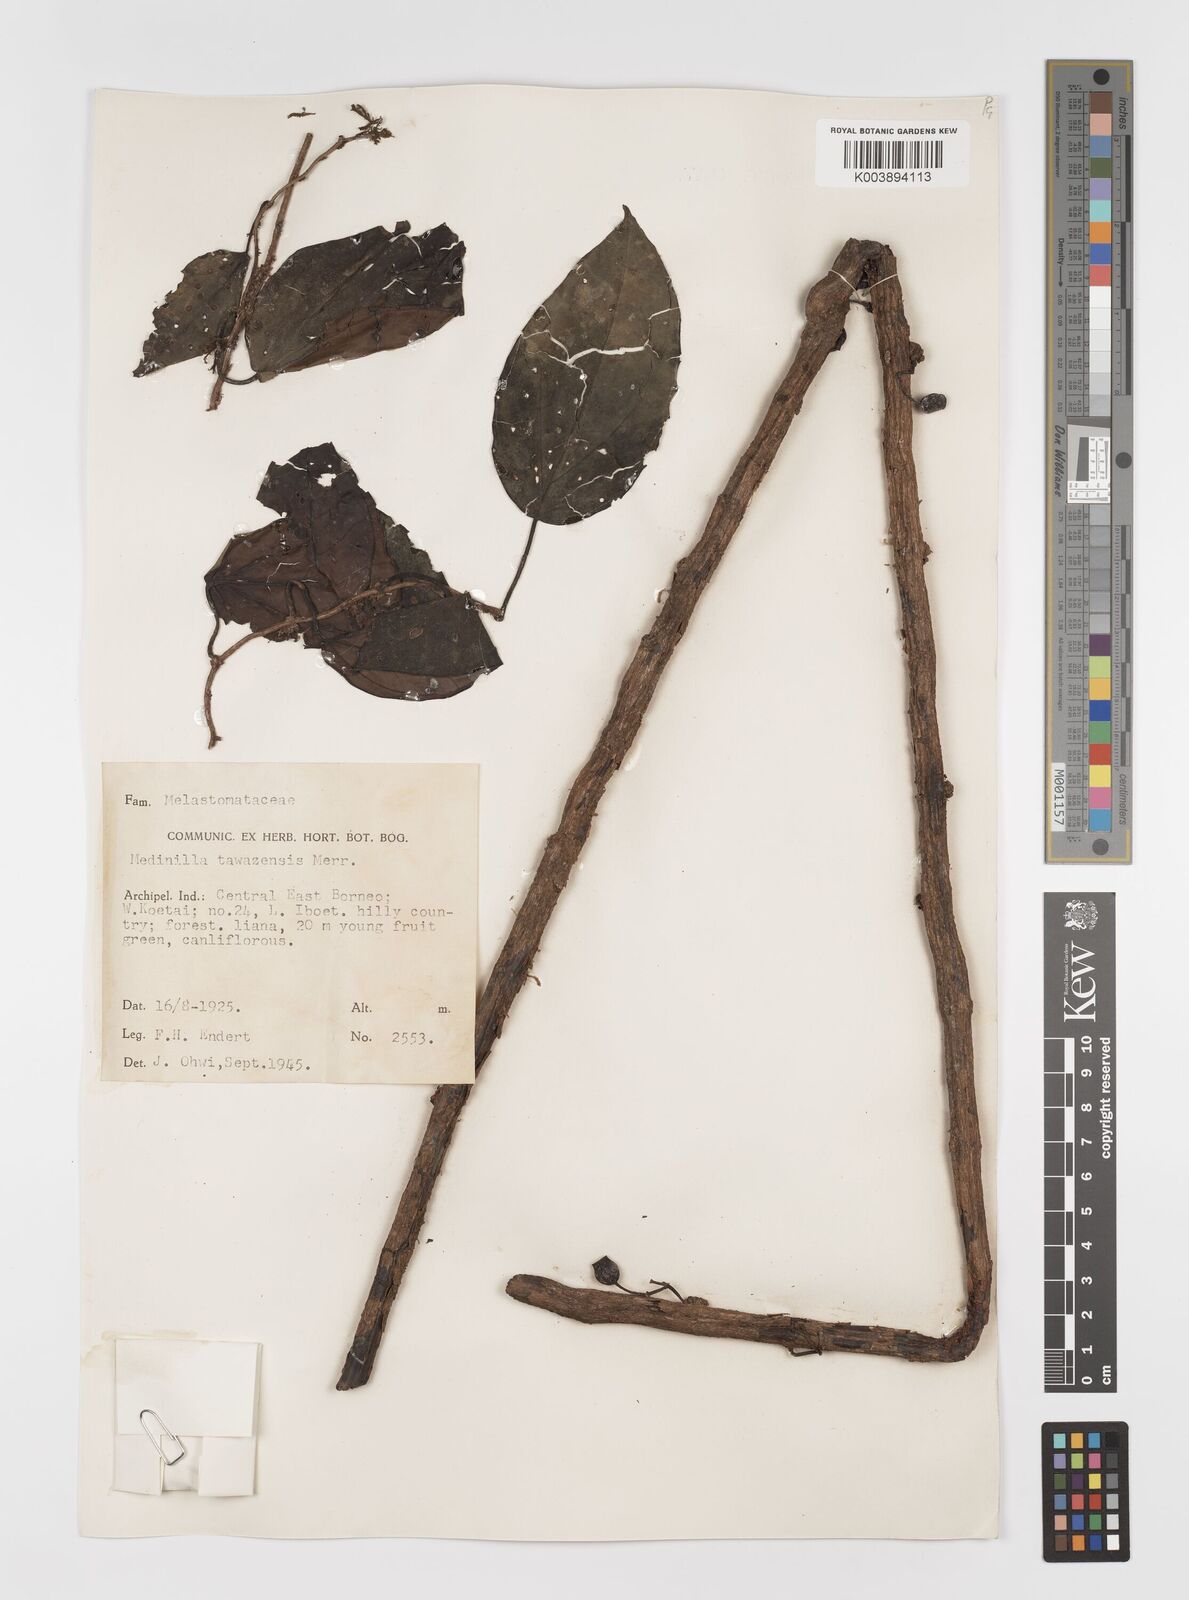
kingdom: Plantae
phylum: Tracheophyta
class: Magnoliopsida
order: Myrtales
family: Melastomataceae
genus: Catanthera
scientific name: Catanthera tawaensis
